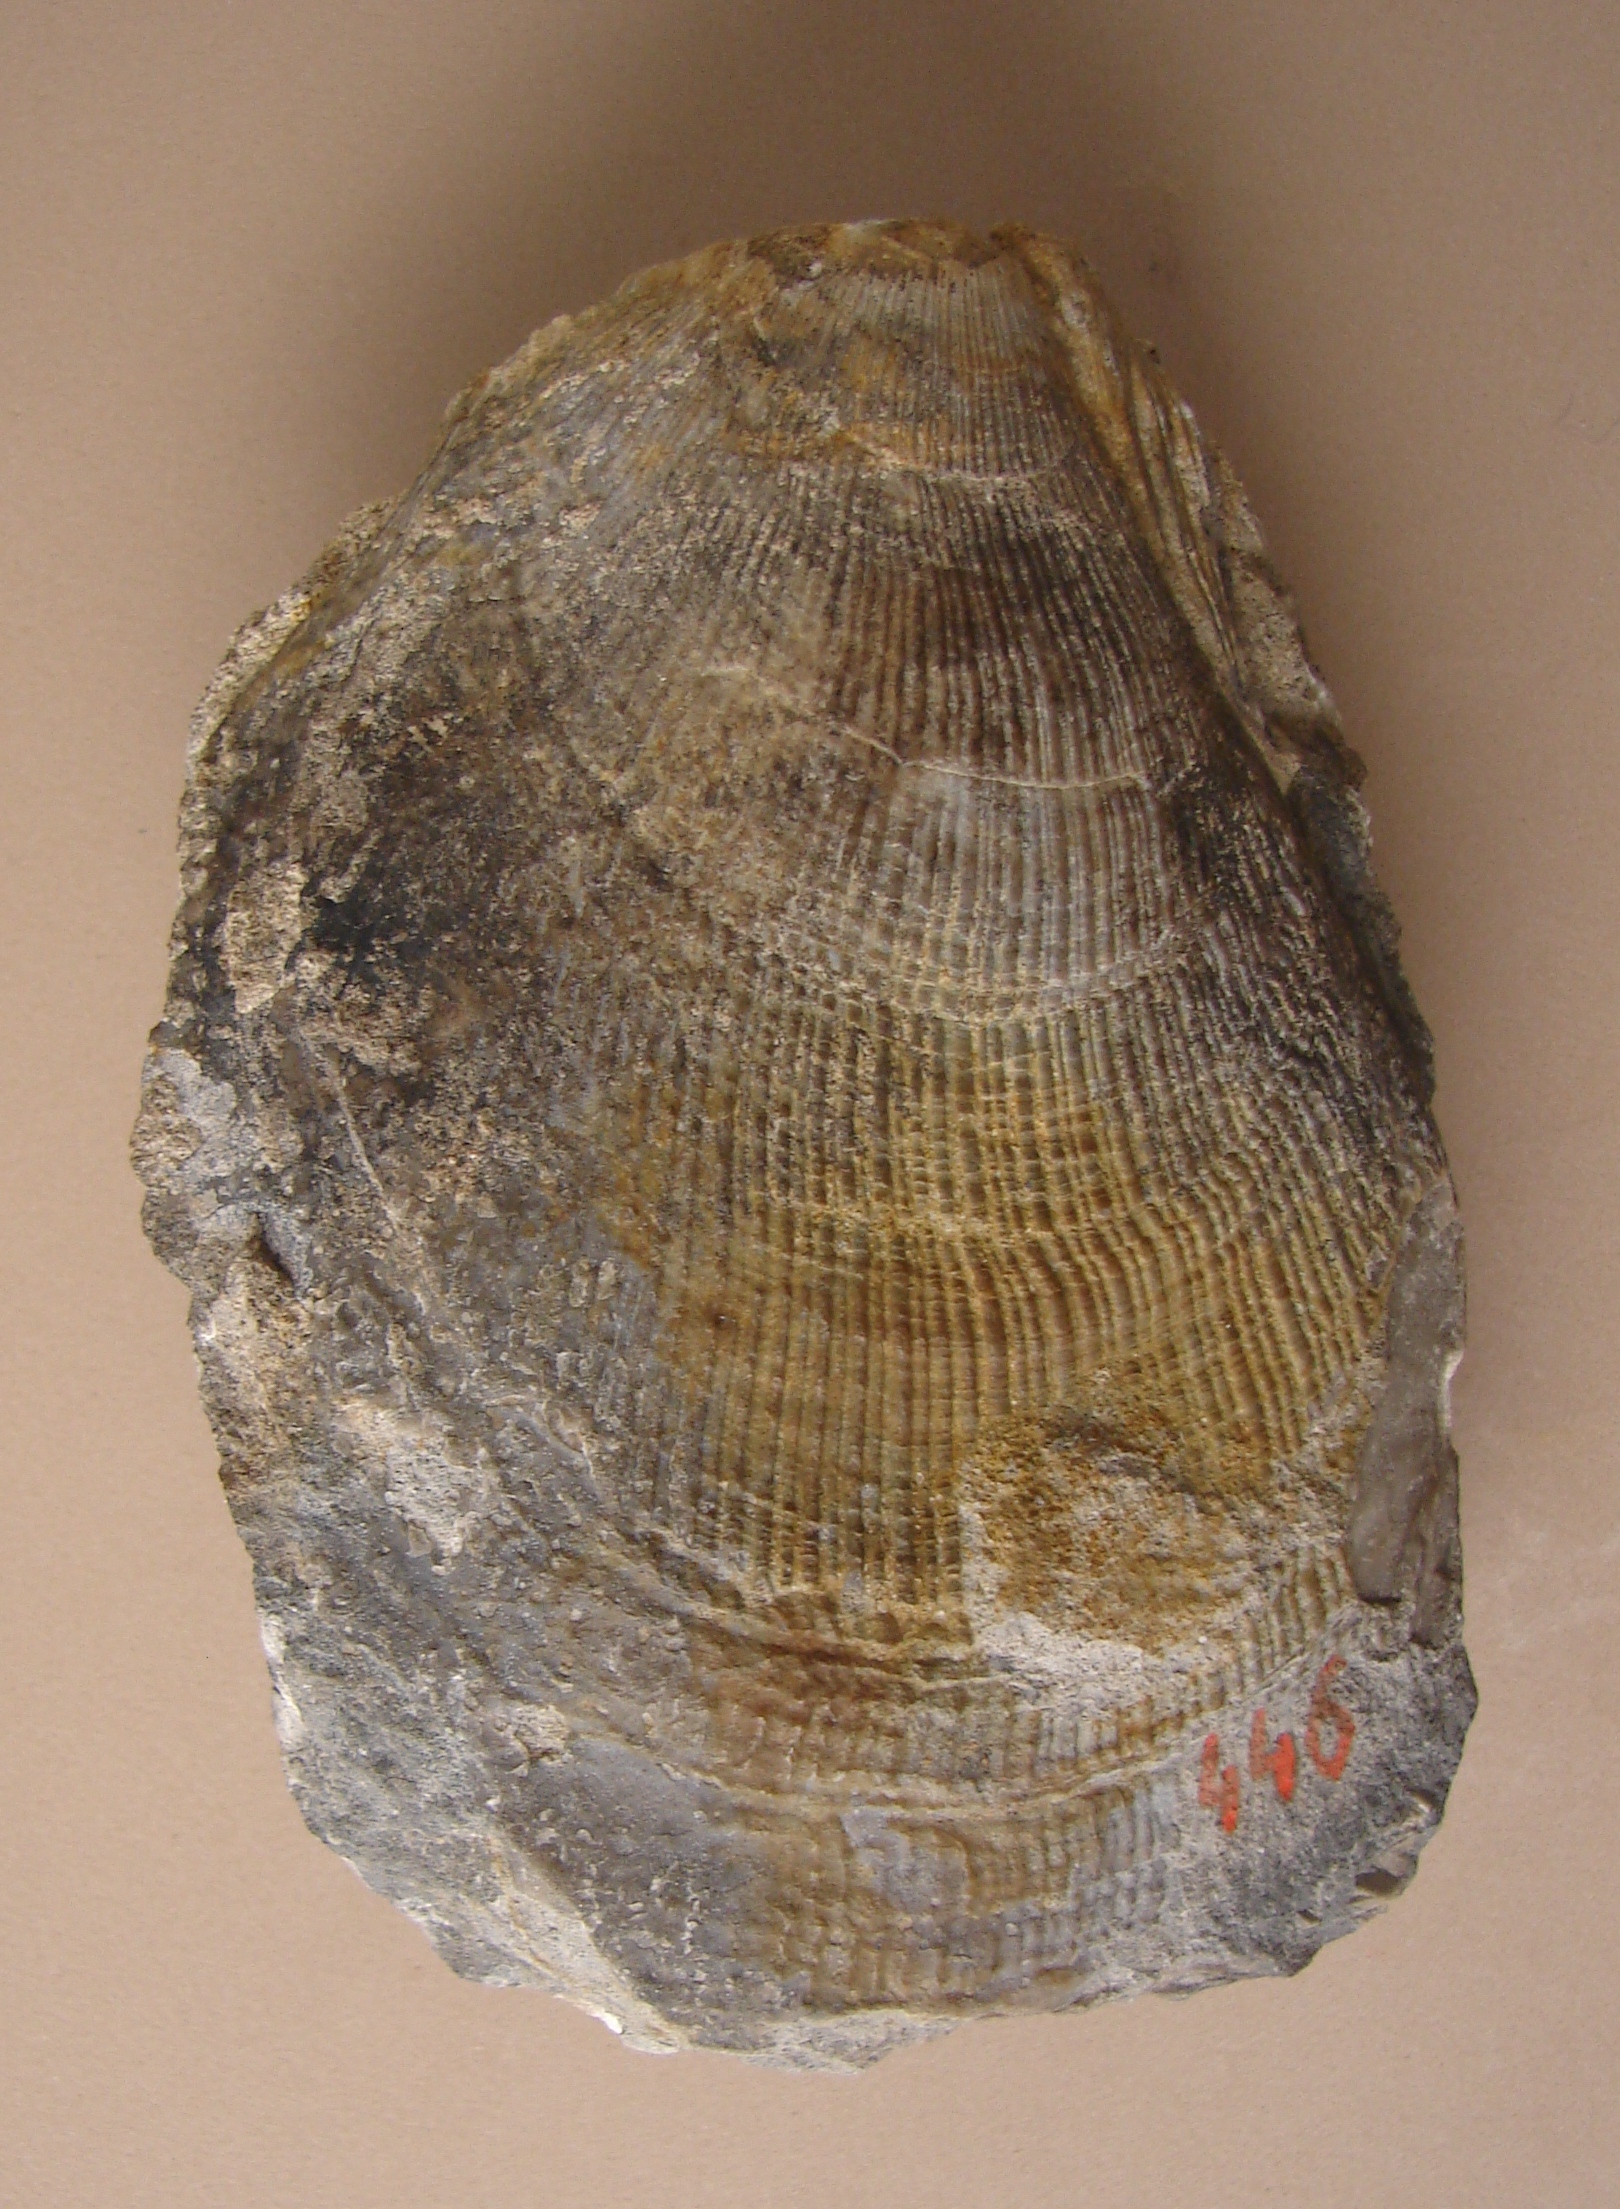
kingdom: Animalia
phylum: Mollusca
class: Bivalvia
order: Limida
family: Limidae
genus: Lima
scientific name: Lima succincta
